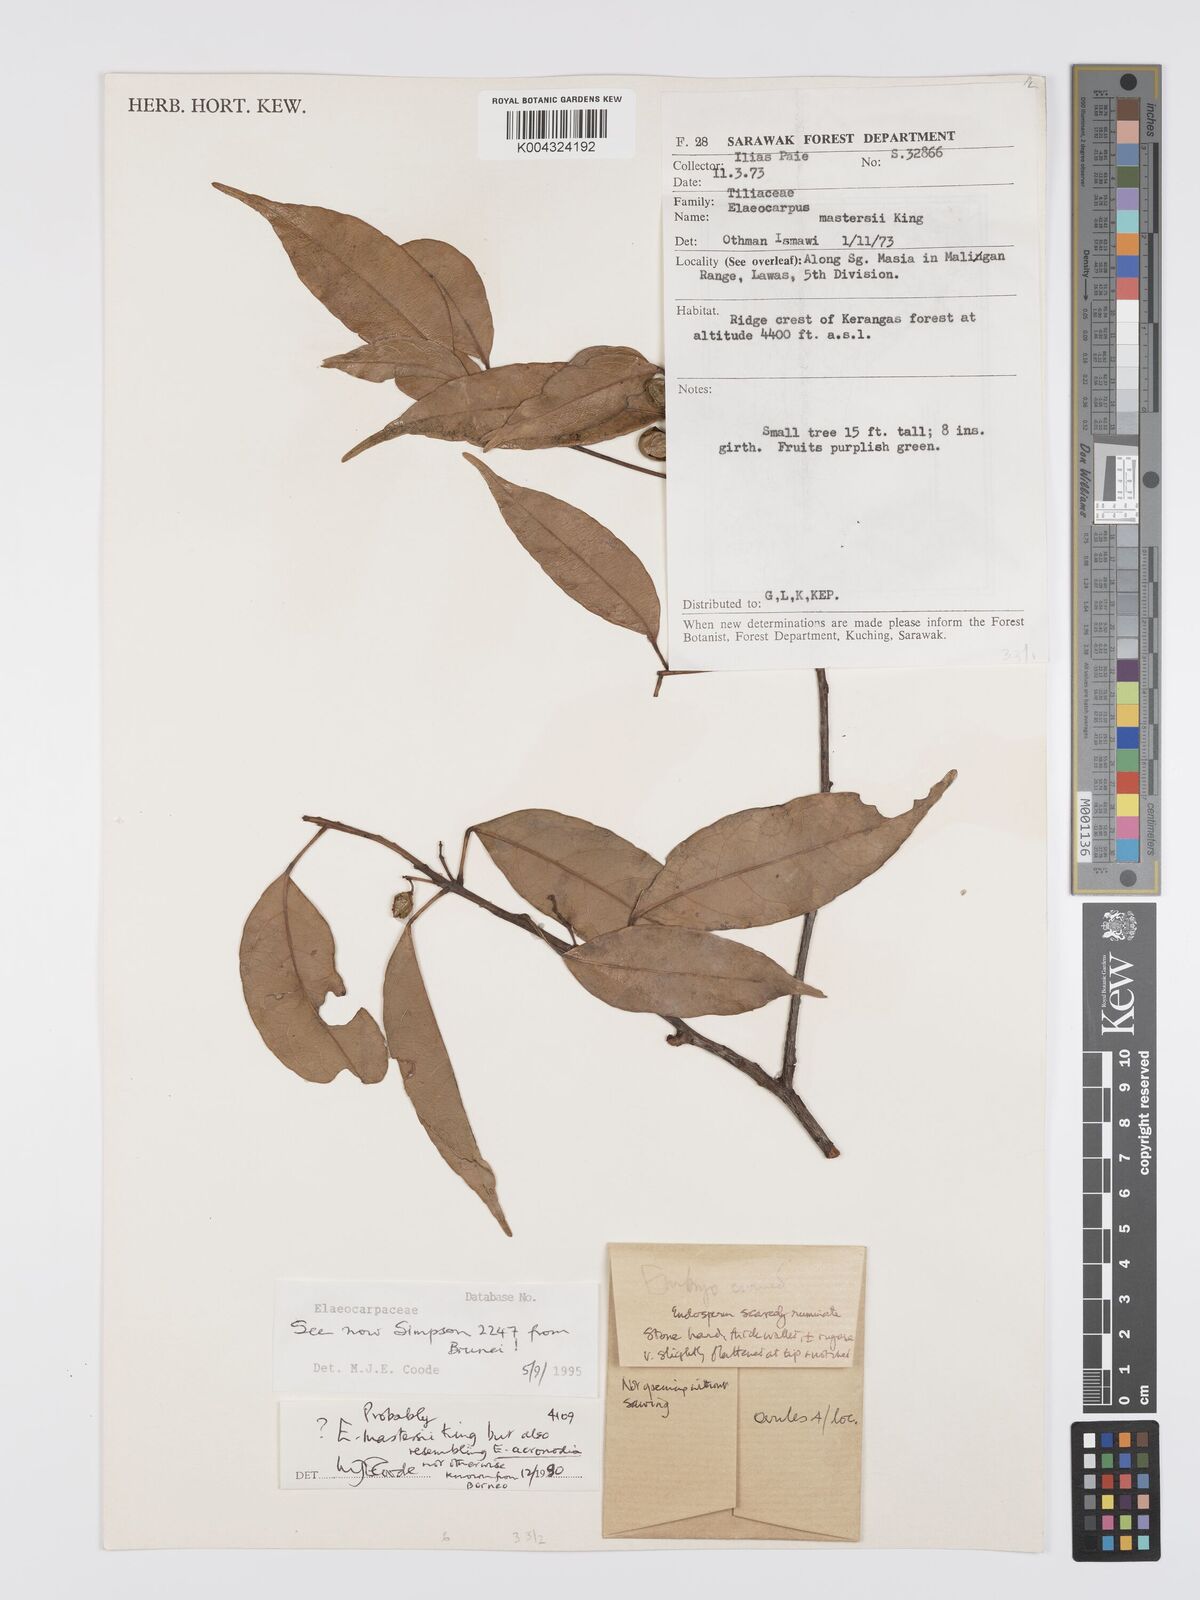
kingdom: Plantae
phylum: Tracheophyta
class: Magnoliopsida
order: Oxalidales
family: Elaeocarpaceae
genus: Elaeocarpus
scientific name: Elaeocarpus mastersii
